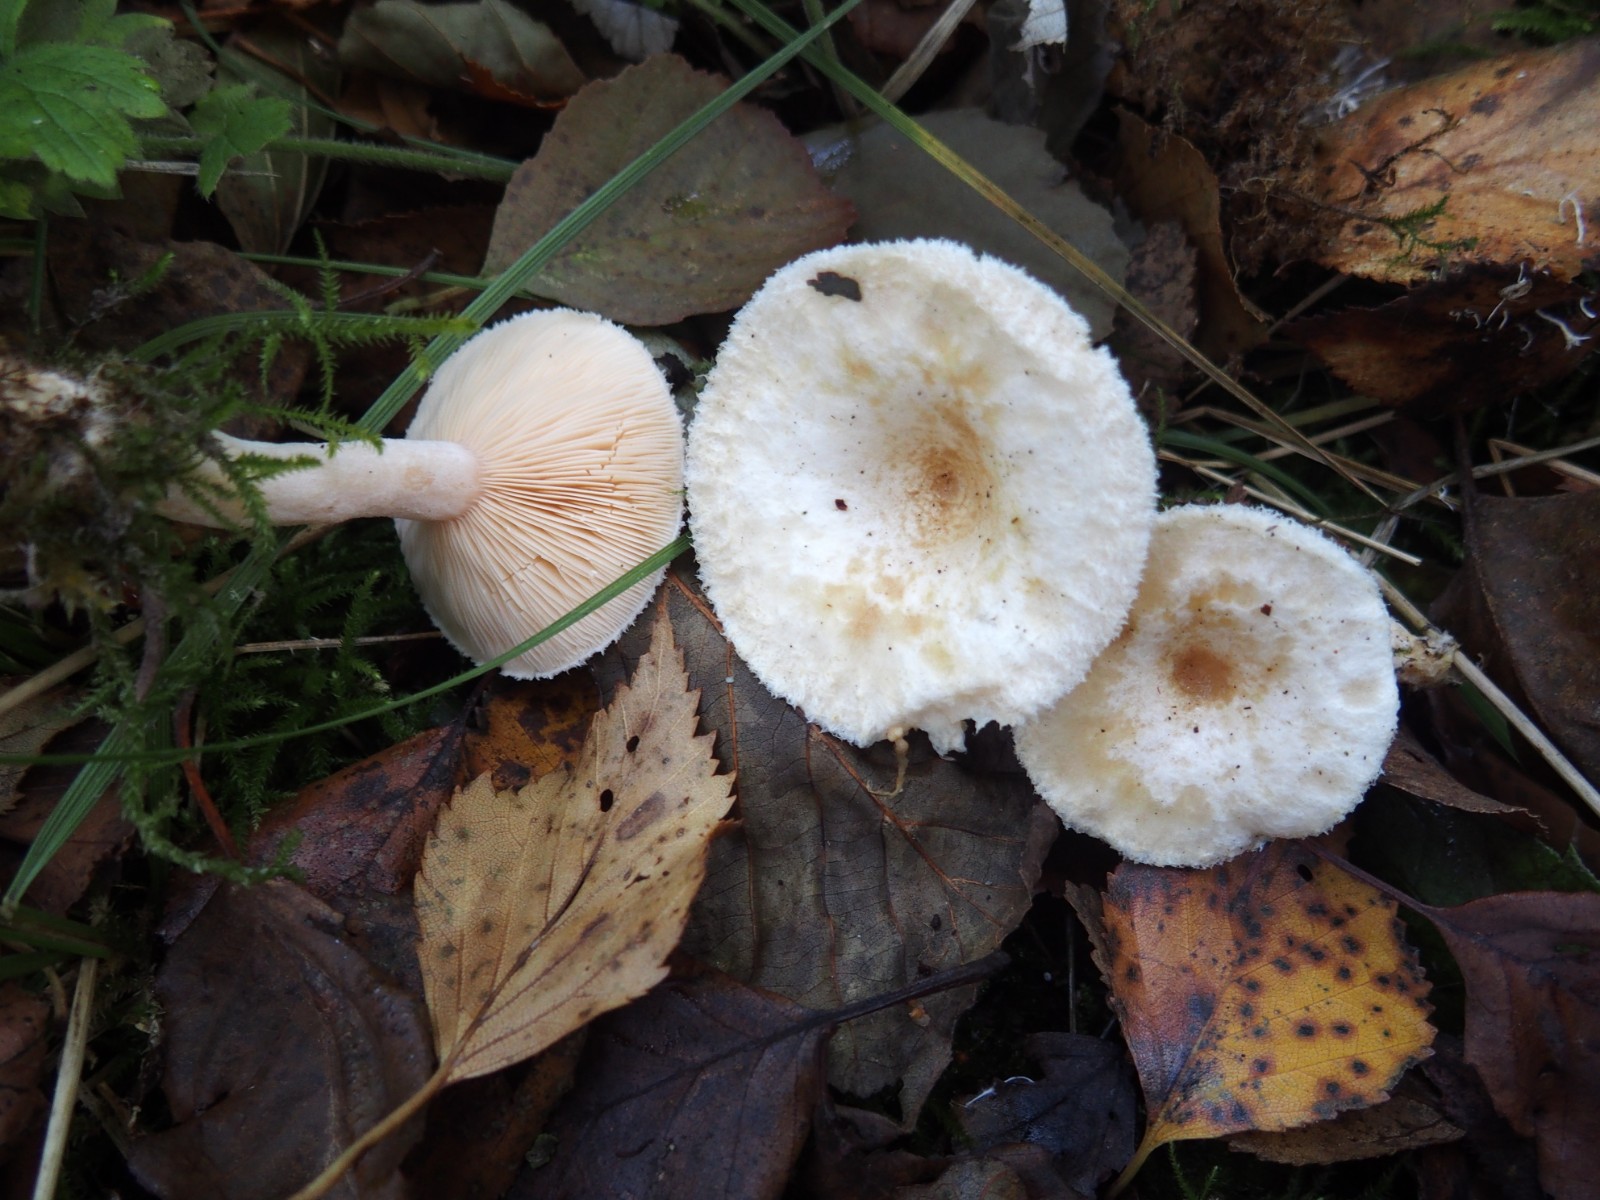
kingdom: Fungi
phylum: Basidiomycota
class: Agaricomycetes
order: Russulales
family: Russulaceae
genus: Lactarius
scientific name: Lactarius scoticus
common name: tørve-mælkehat
